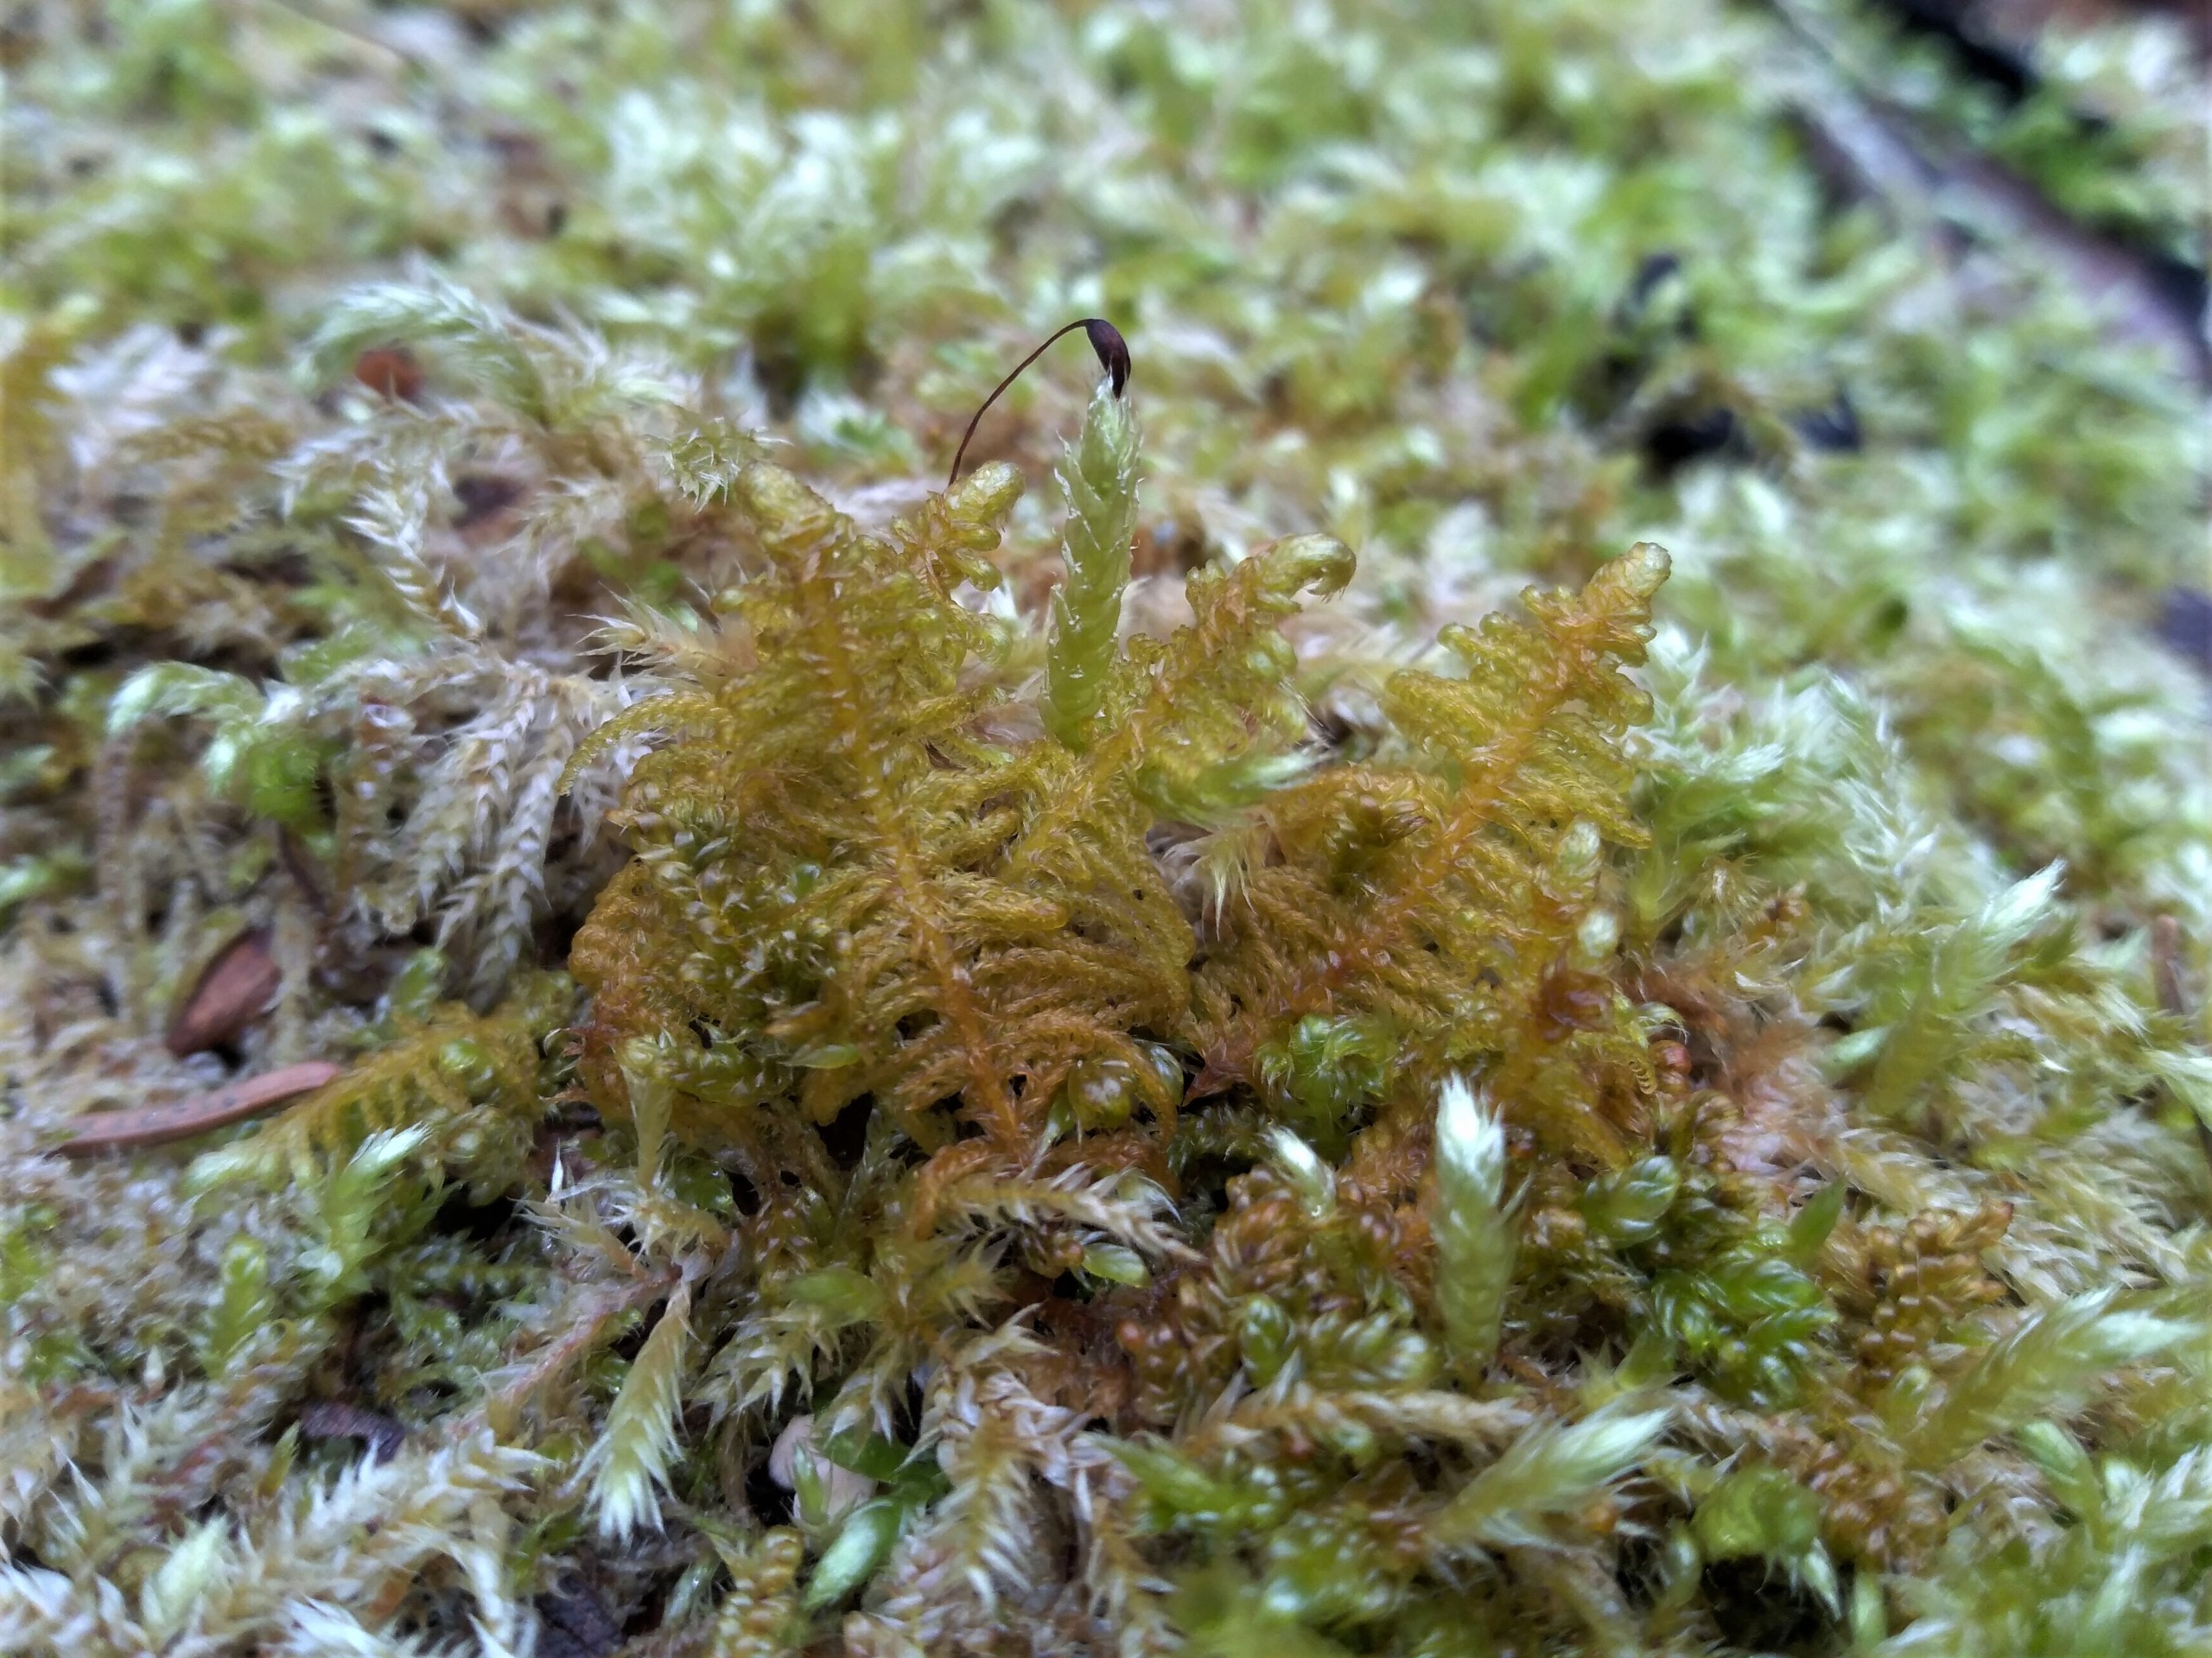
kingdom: Plantae
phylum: Bryophyta
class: Bryopsida
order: Hypnales
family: Pylaisiaceae
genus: Ptilium
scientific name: Ptilium crista-castrensis
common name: Fjer-kammos
